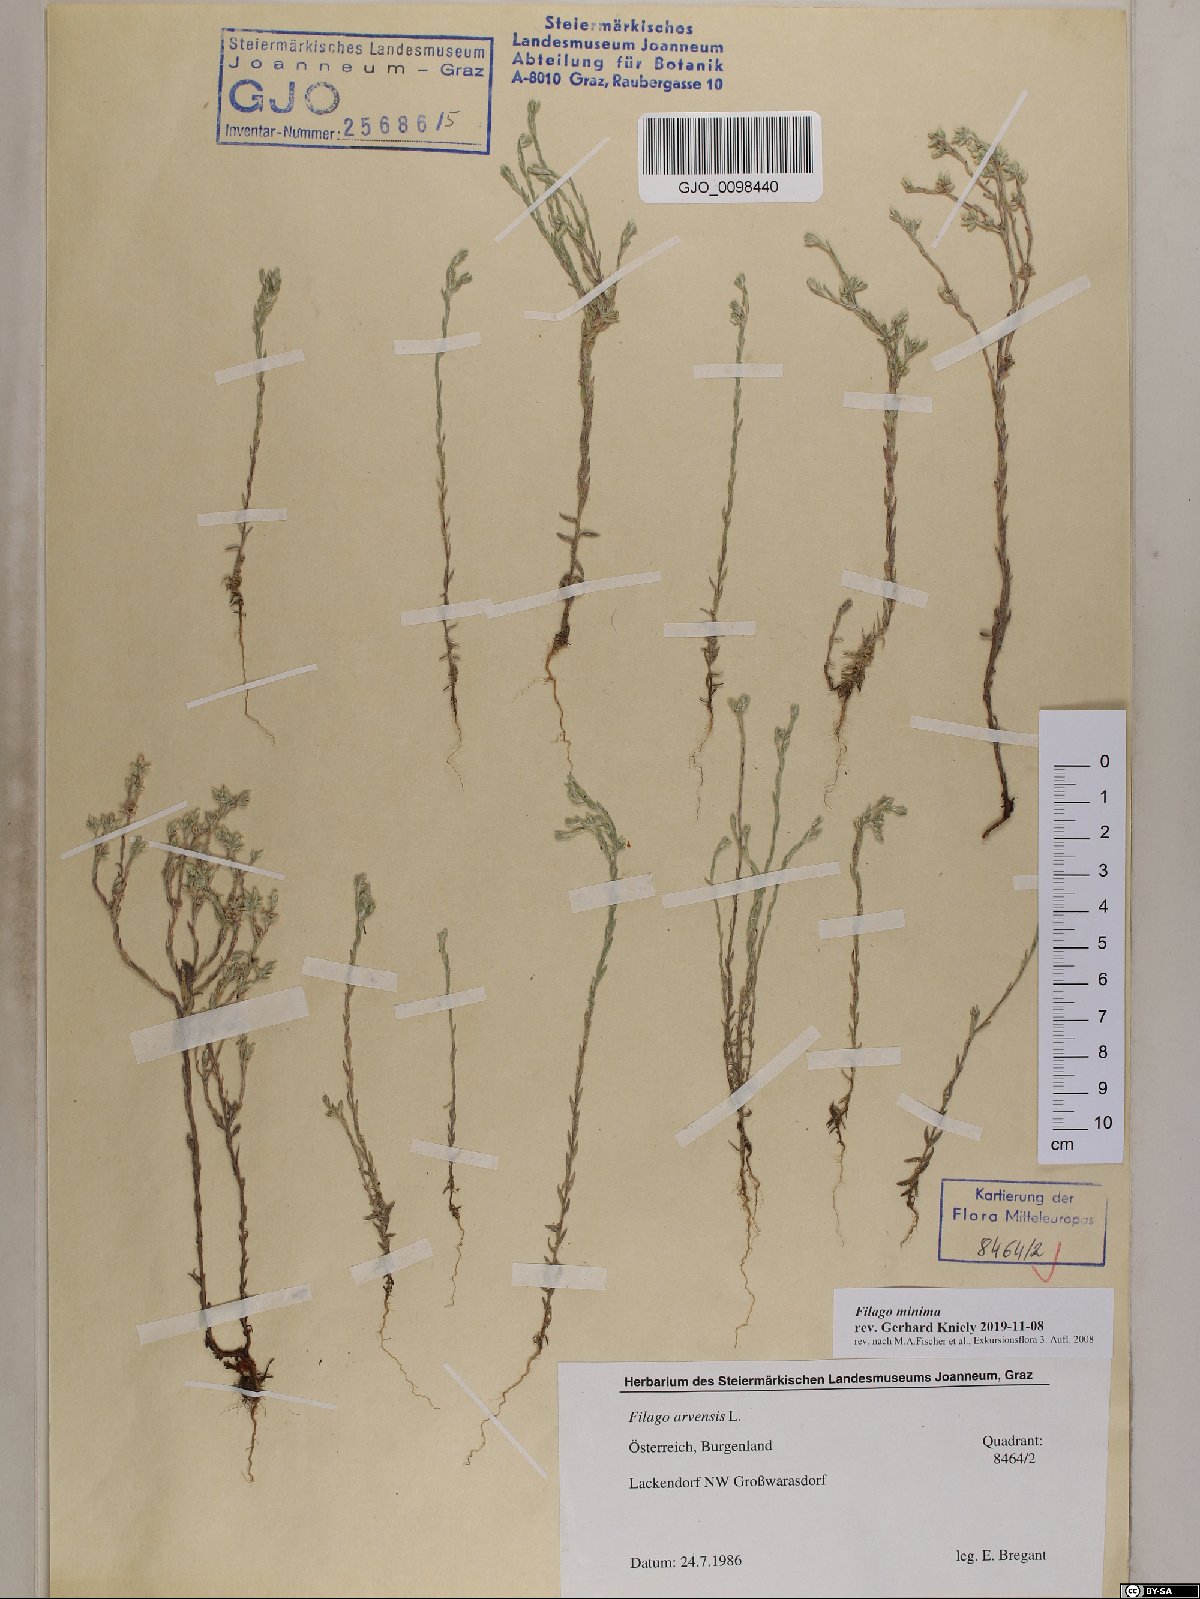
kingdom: Plantae
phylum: Tracheophyta
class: Magnoliopsida
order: Asterales
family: Asteraceae
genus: Logfia
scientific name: Logfia minima
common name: Little cottonrose
